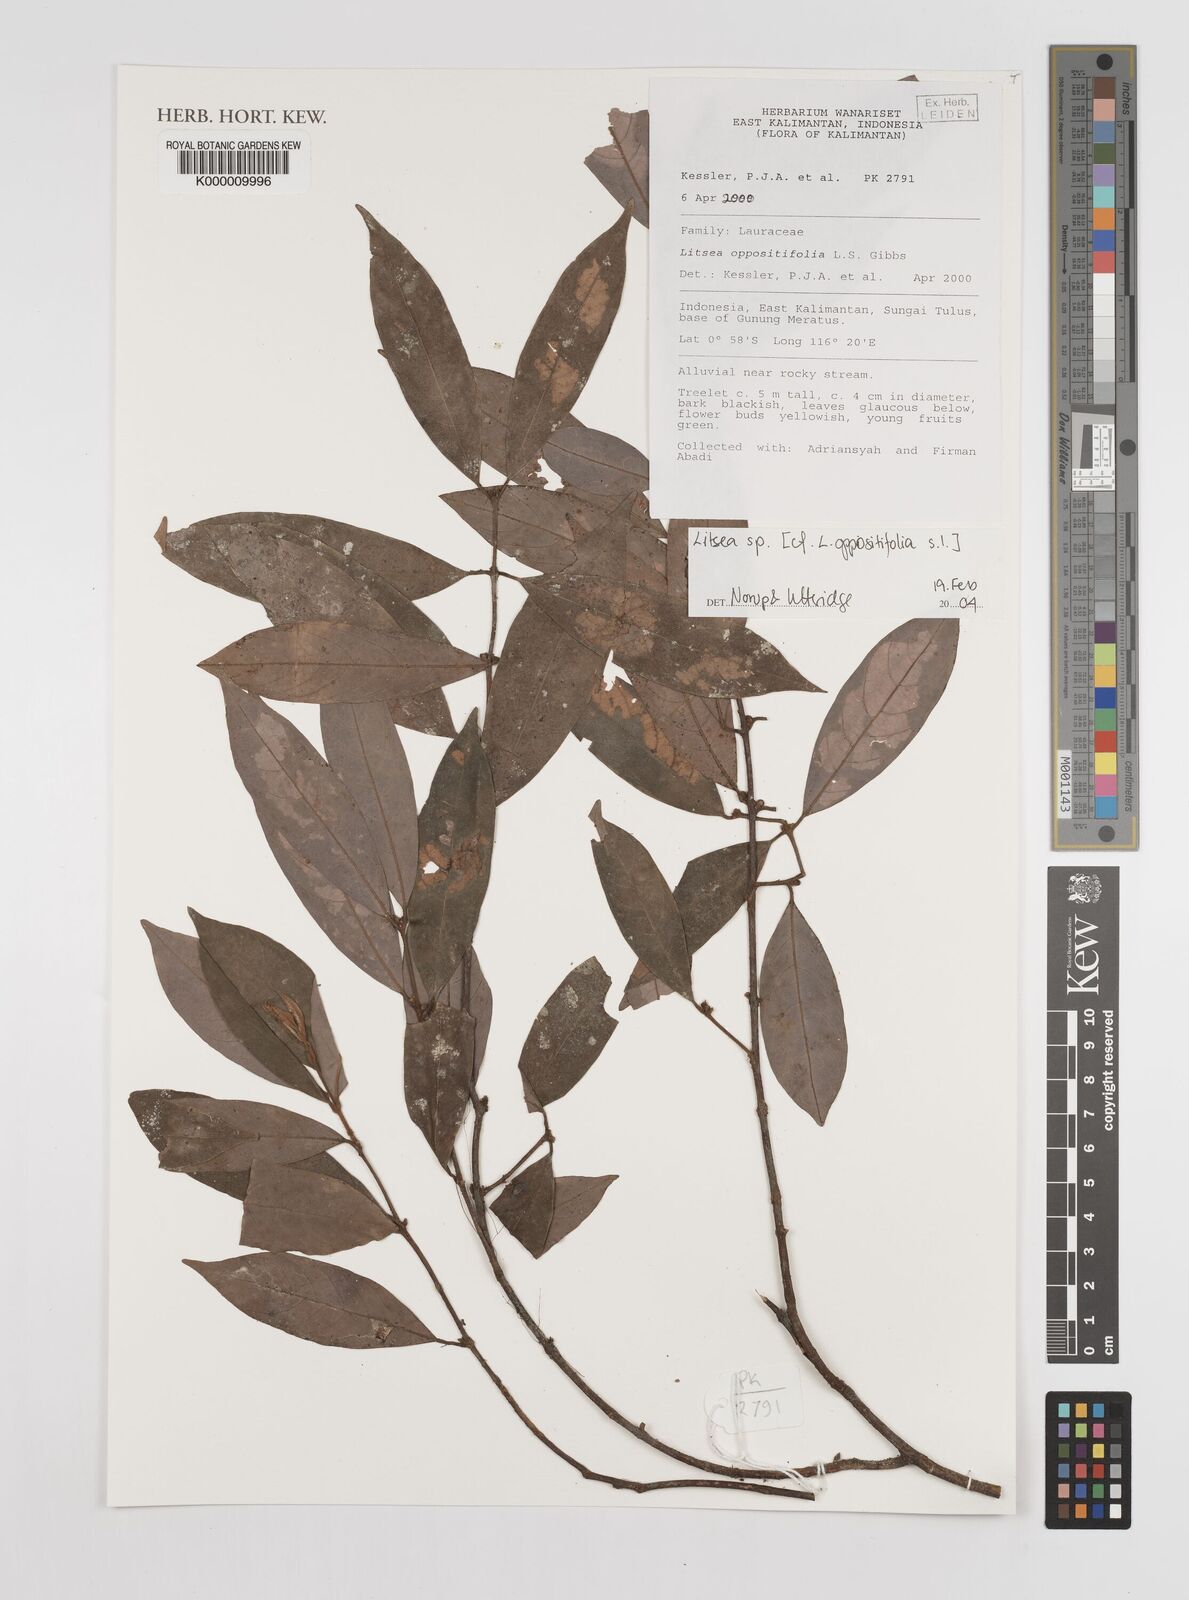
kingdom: Plantae
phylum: Tracheophyta
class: Magnoliopsida
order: Laurales
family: Lauraceae
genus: Litsea
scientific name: Litsea
